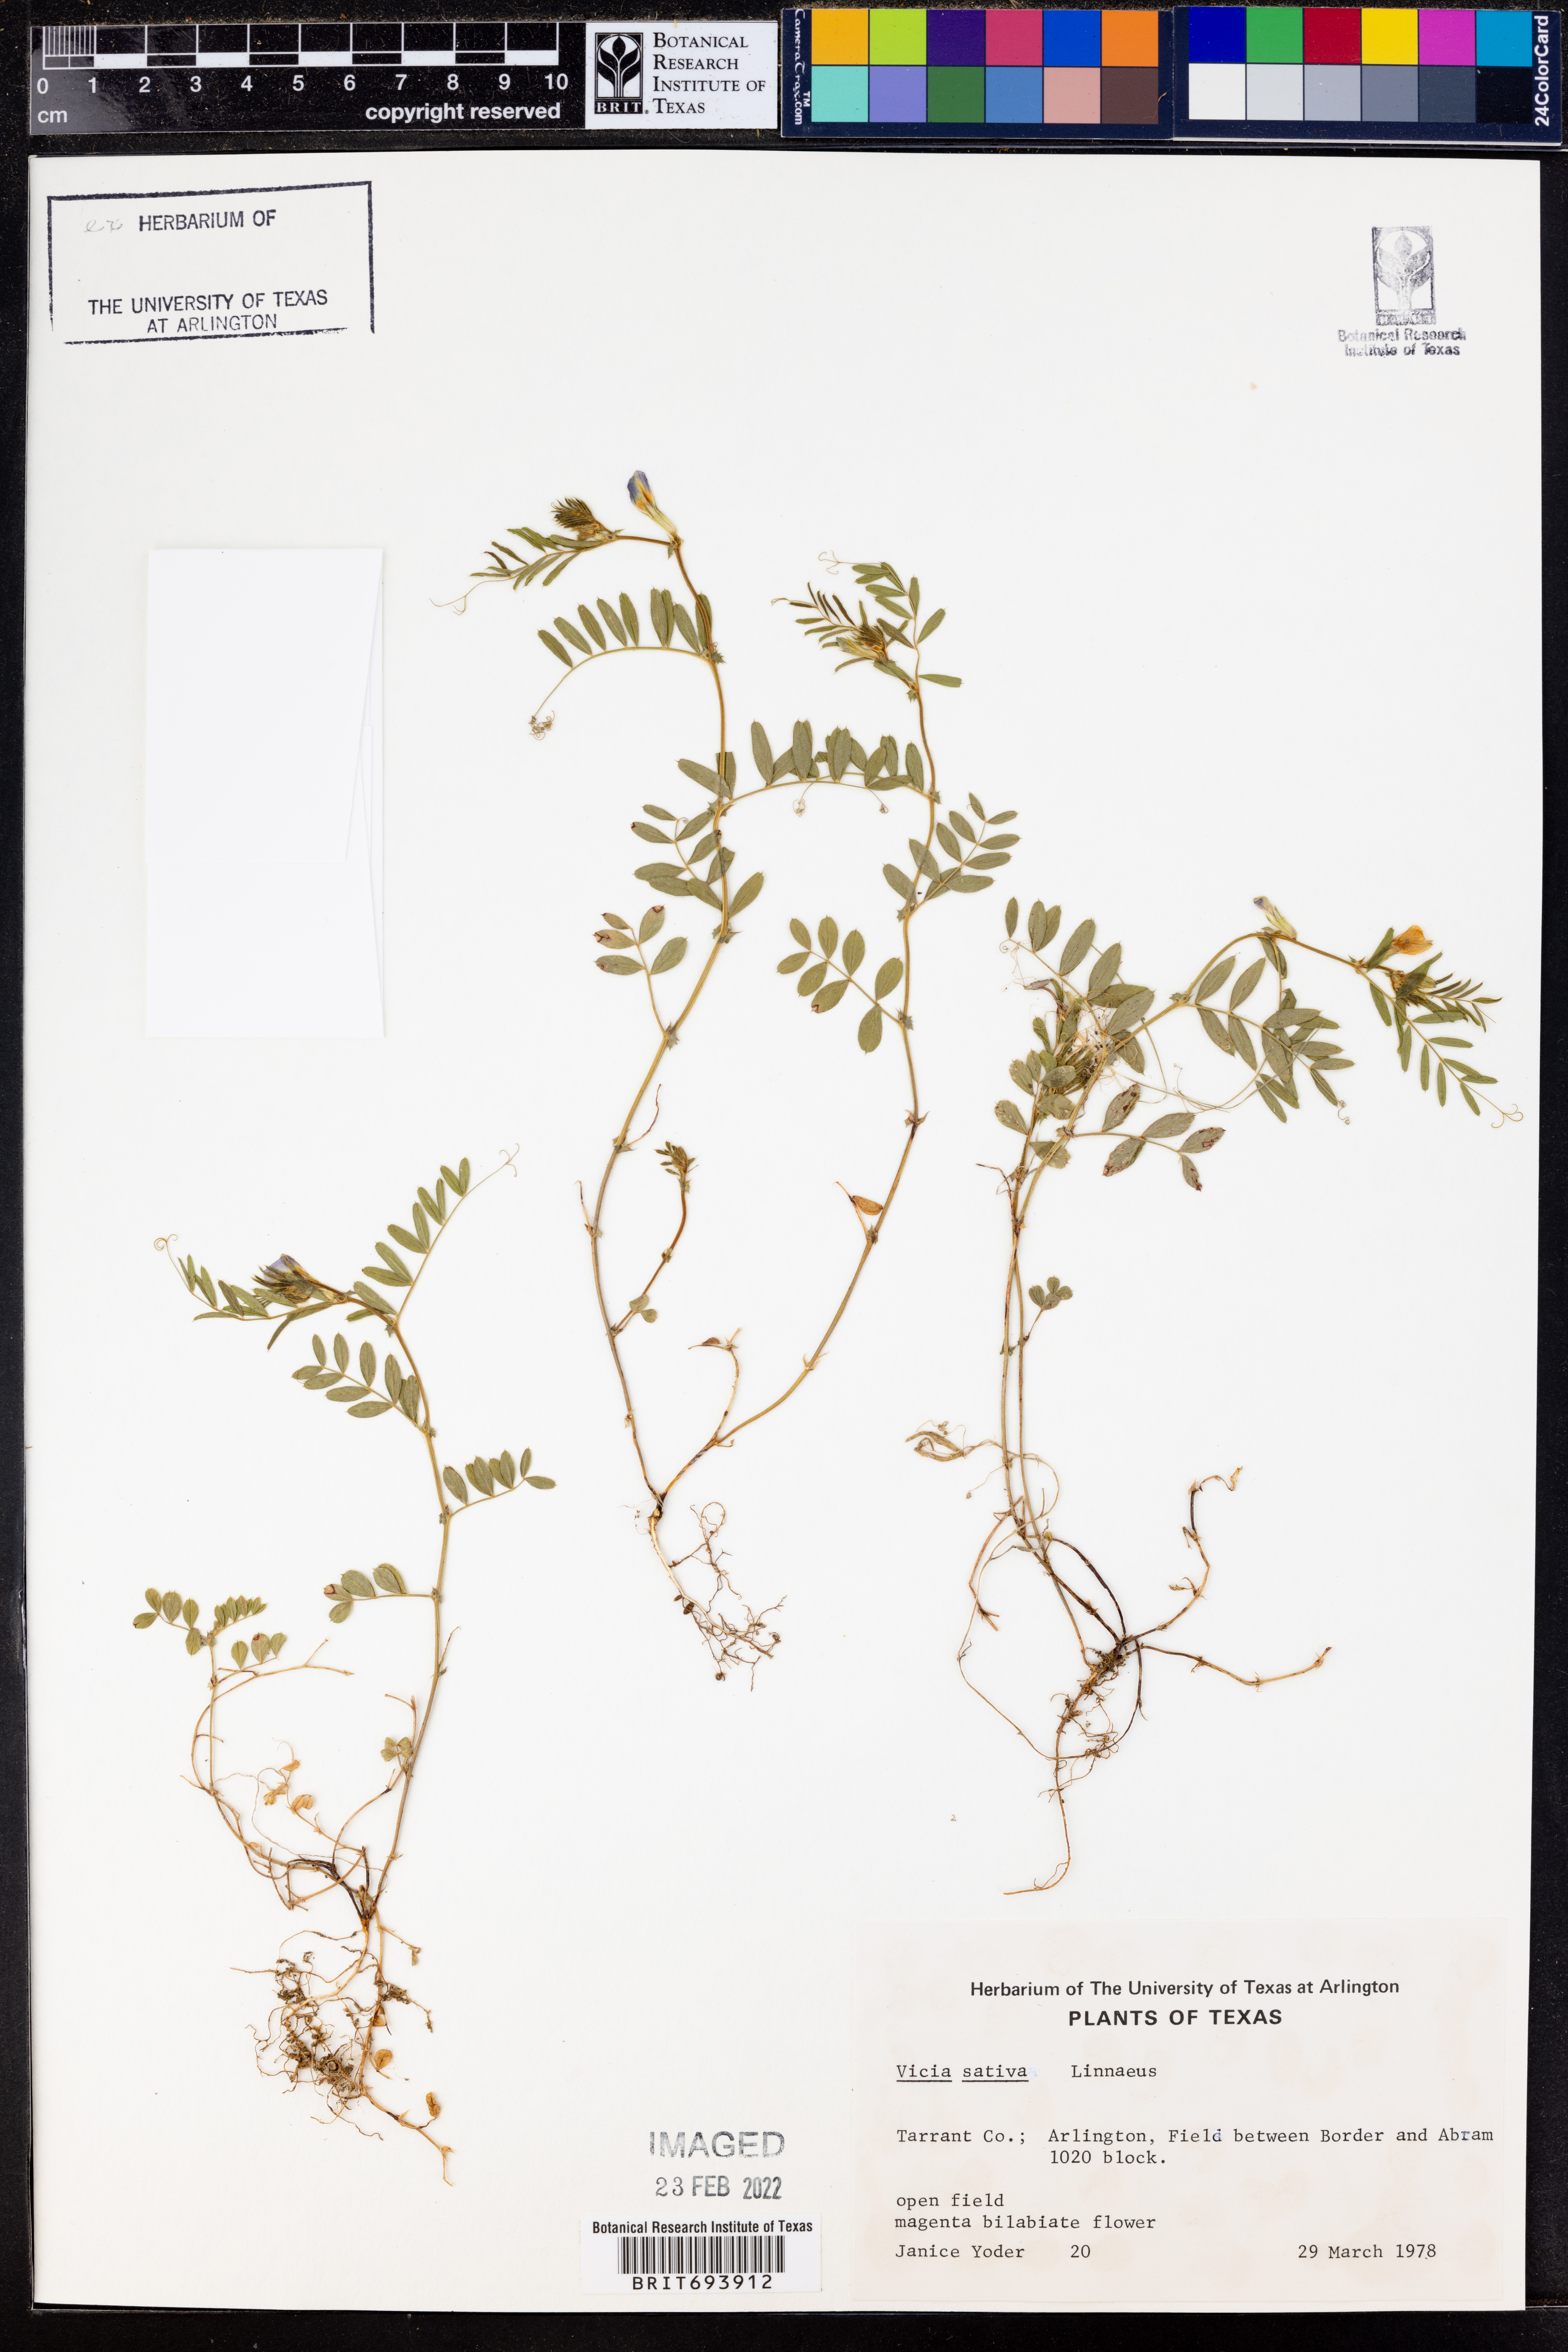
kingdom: Plantae
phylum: Tracheophyta
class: Magnoliopsida
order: Fabales
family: Fabaceae
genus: Vicia
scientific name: Vicia sativa
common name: Garden vetch
